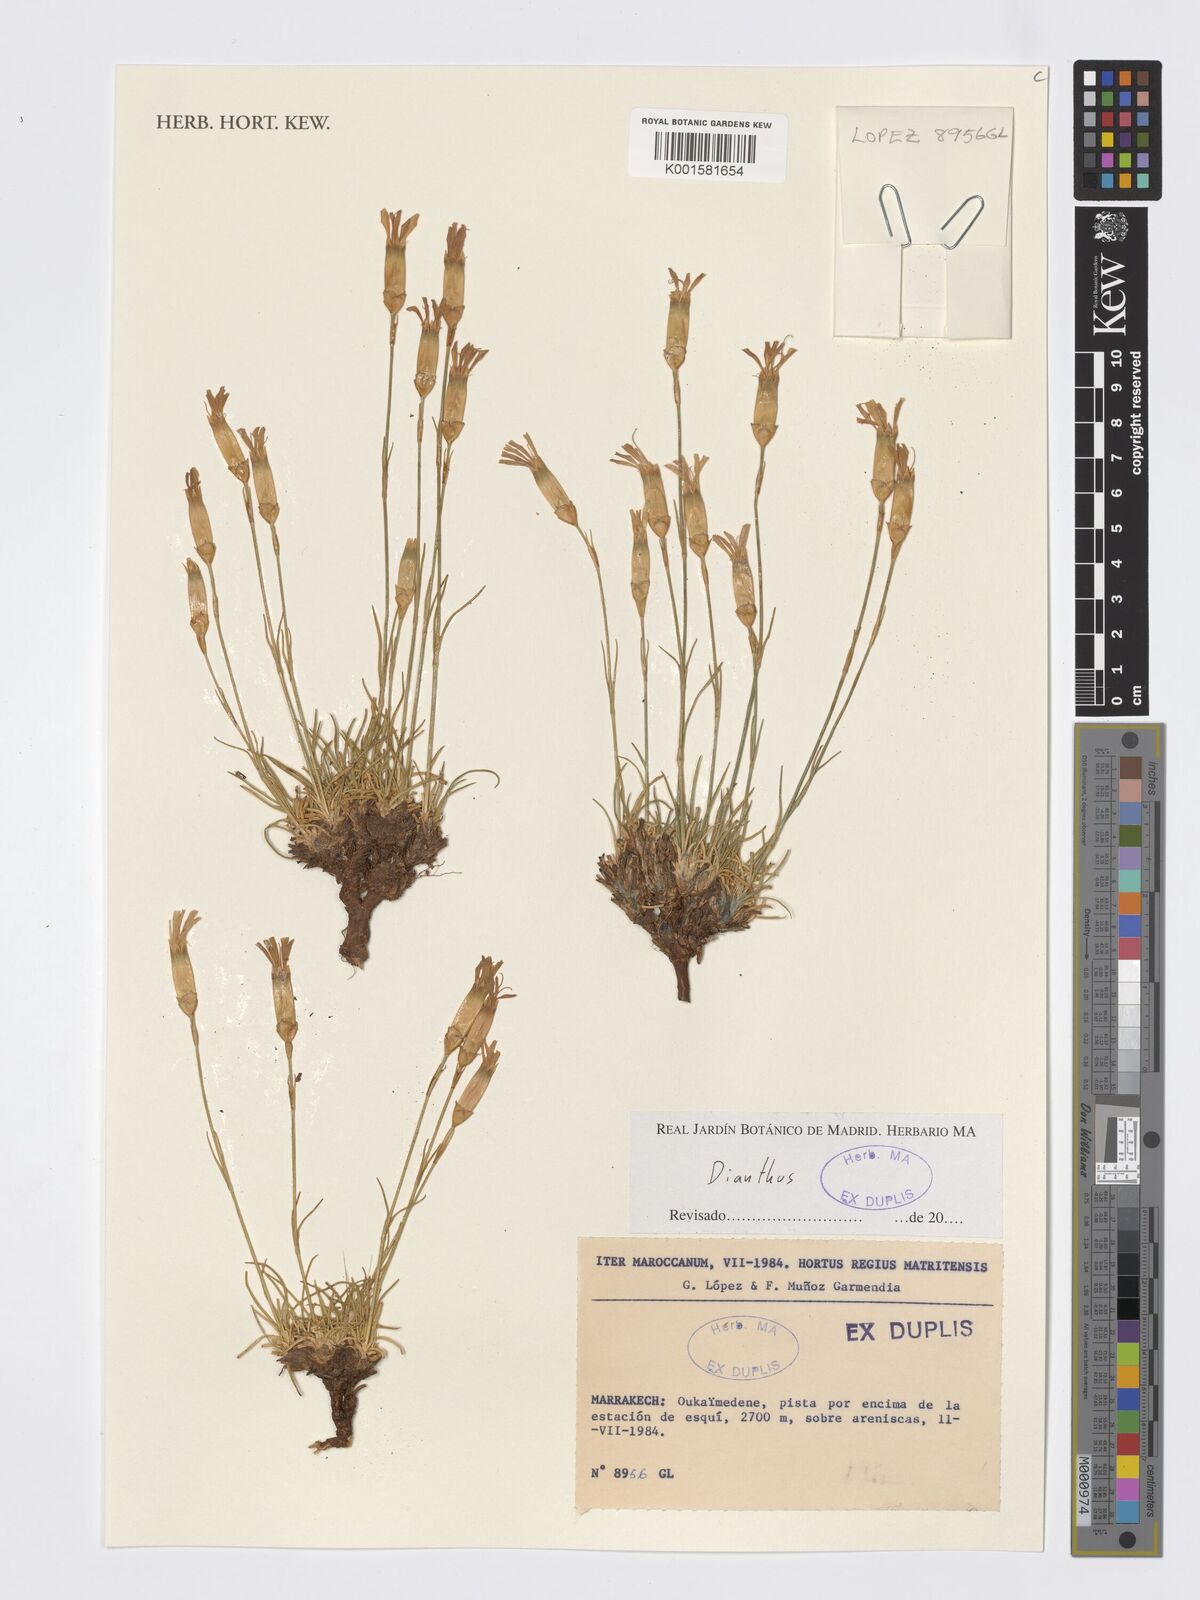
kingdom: Plantae
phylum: Tracheophyta
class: Magnoliopsida
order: Caryophyllales
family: Caryophyllaceae
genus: Dianthus
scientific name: Dianthus
